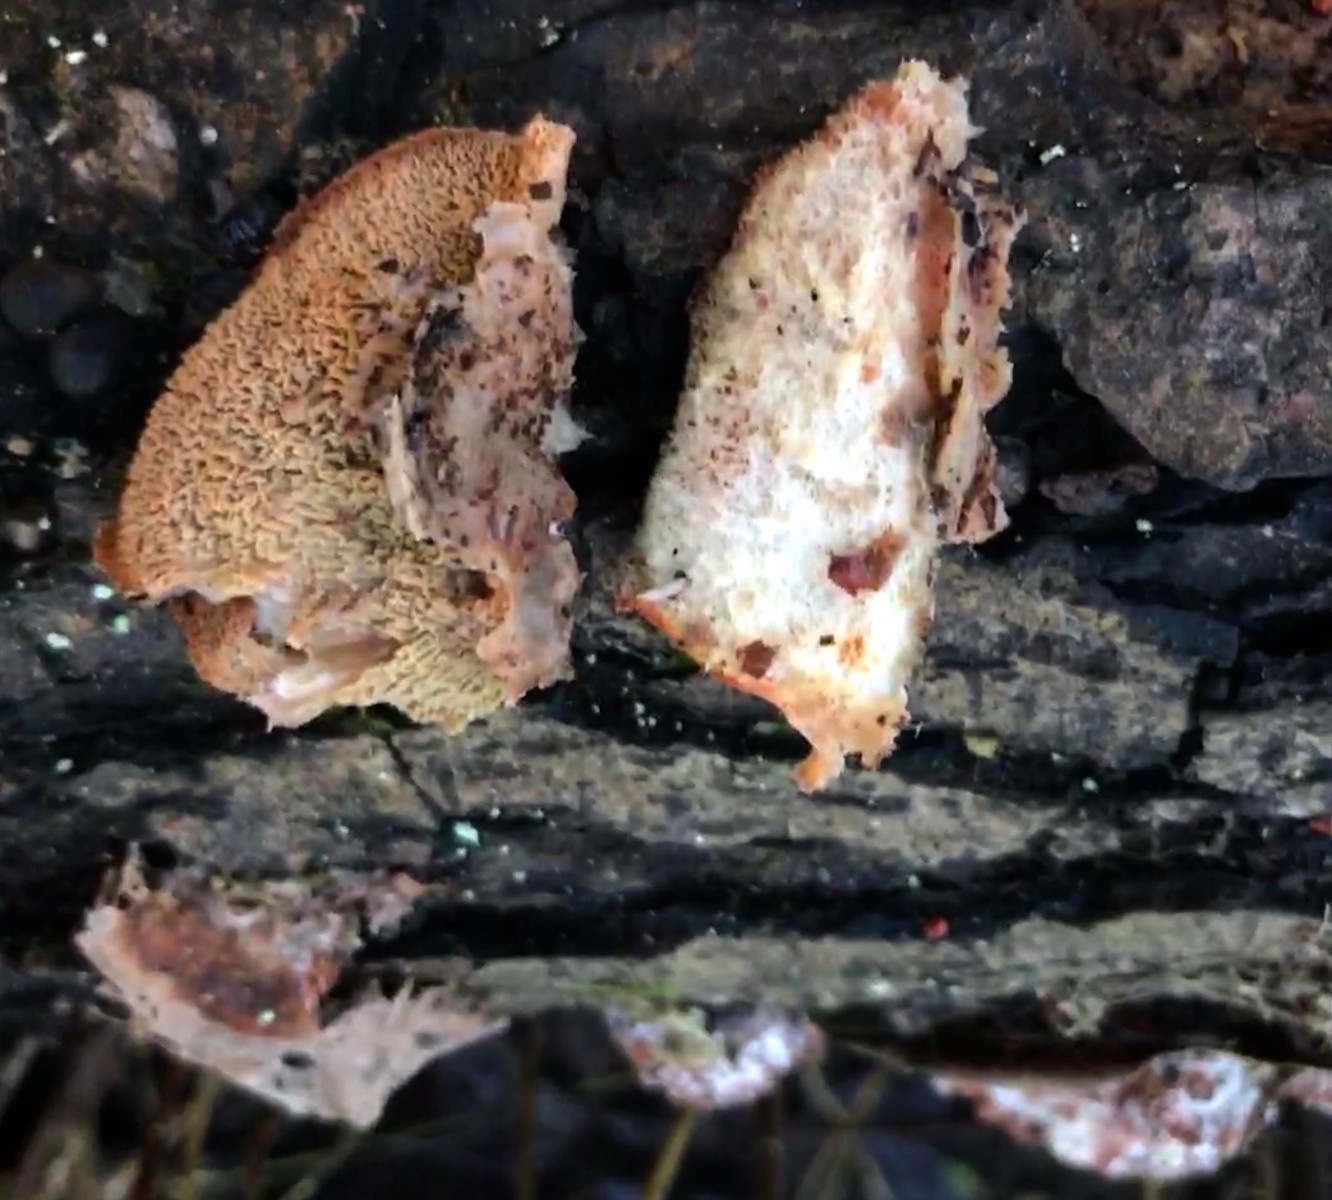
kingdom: Fungi
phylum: Basidiomycota
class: Agaricomycetes
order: Polyporales
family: Meruliaceae
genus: Phlebia
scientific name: Phlebia tremellosa
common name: bævrende åresvamp
